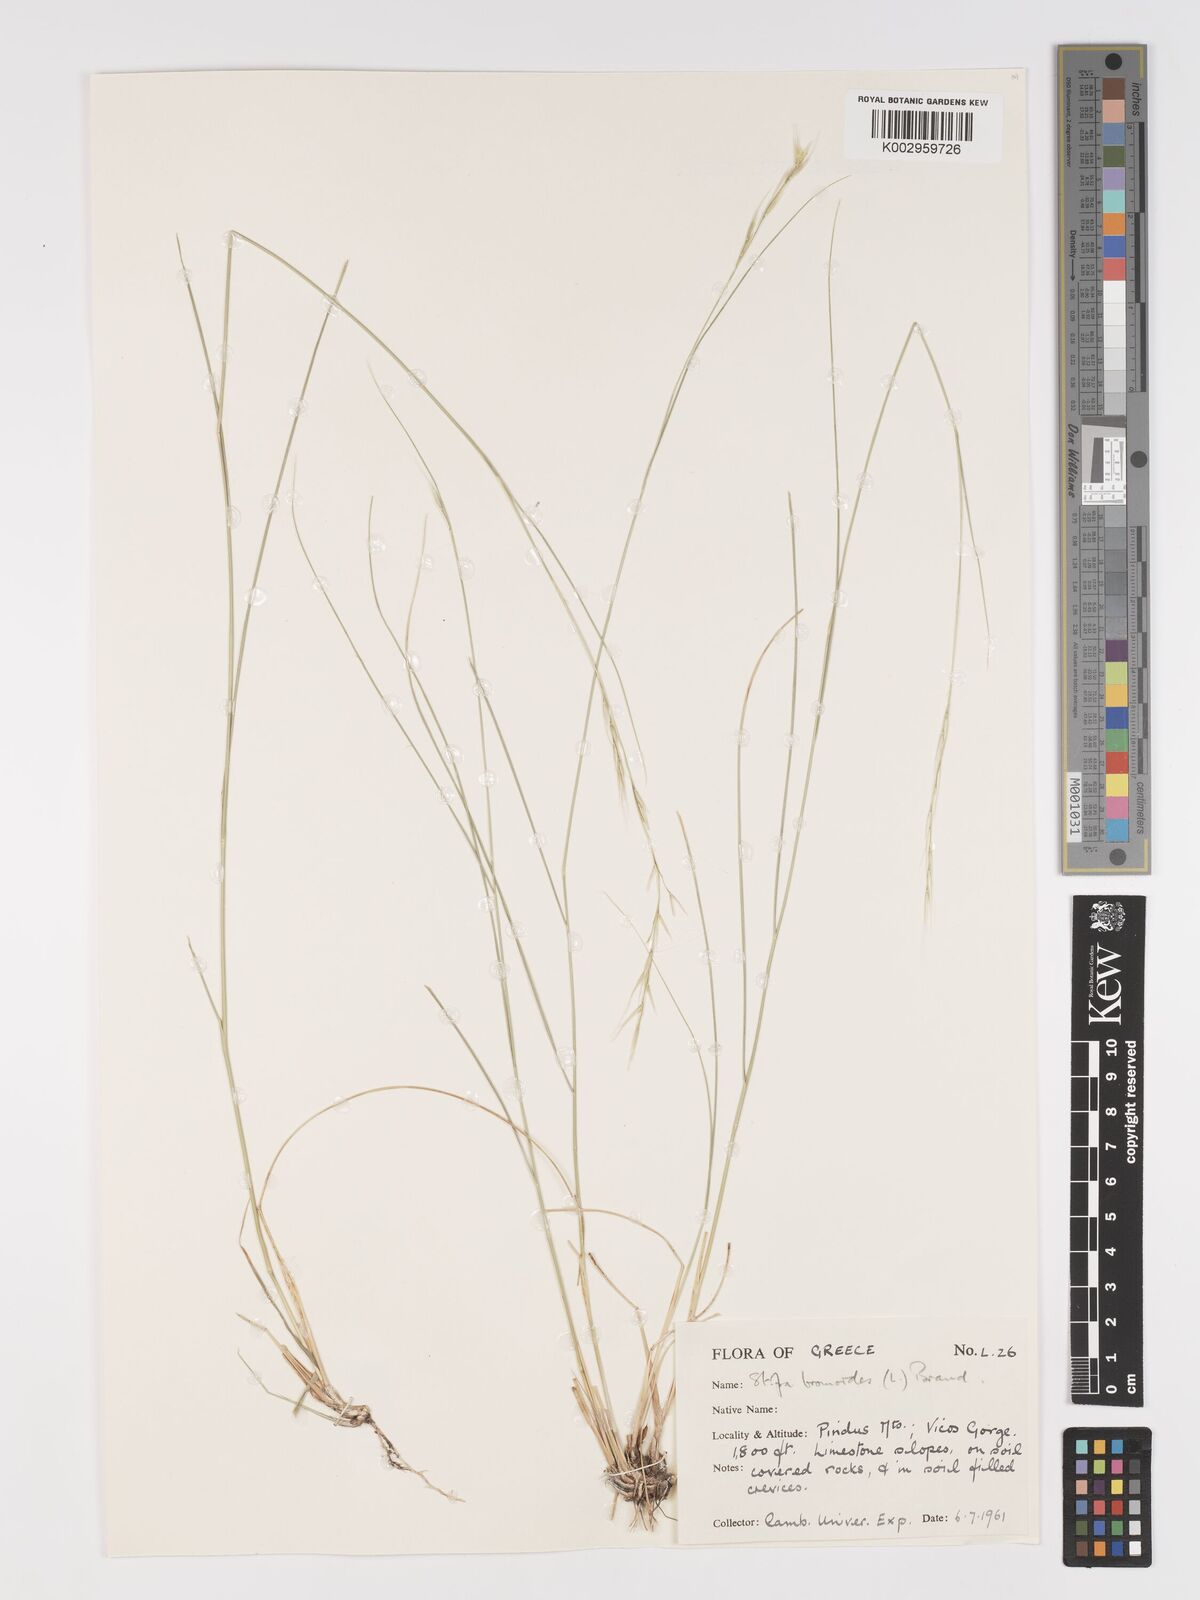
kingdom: Plantae
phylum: Tracheophyta
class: Liliopsida
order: Poales
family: Poaceae
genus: Achnatherum
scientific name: Achnatherum bromoides
